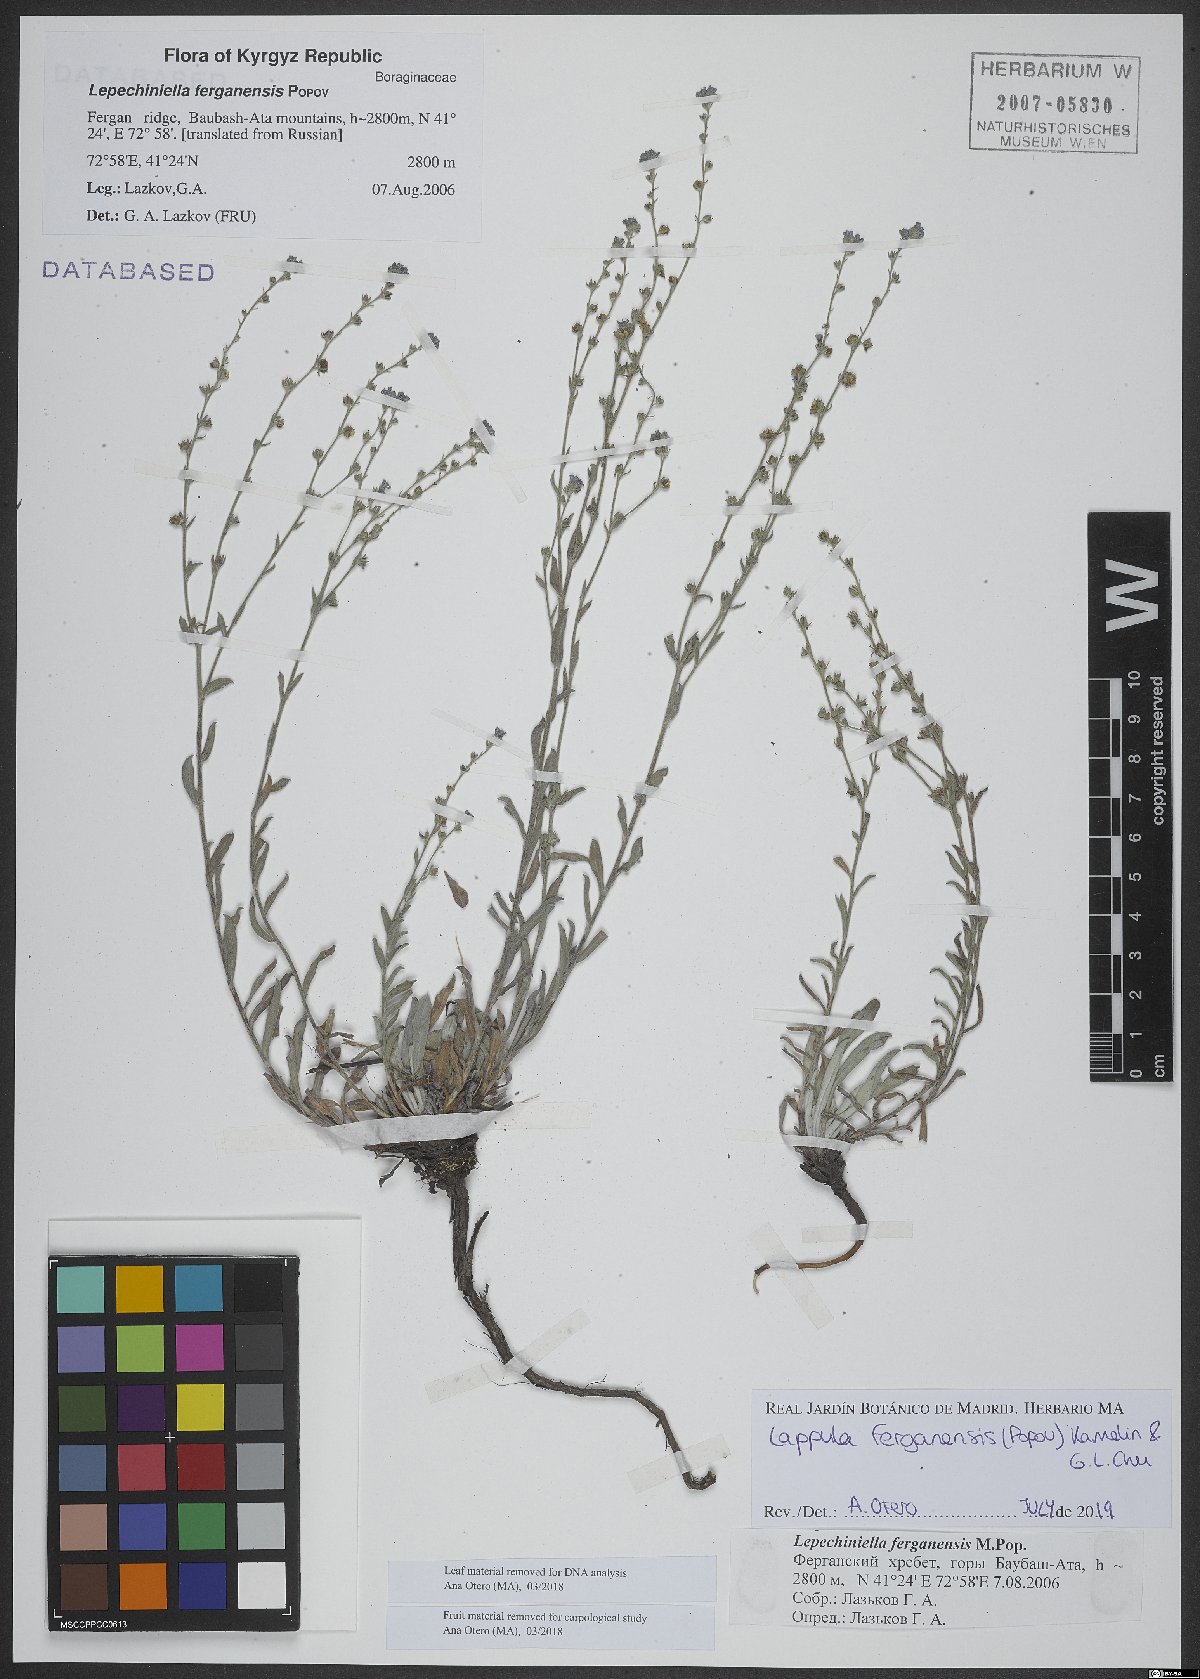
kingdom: Plantae
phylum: Tracheophyta
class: Magnoliopsida
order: Boraginales
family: Boraginaceae
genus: Lappula
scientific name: Lappula korshinskyi
